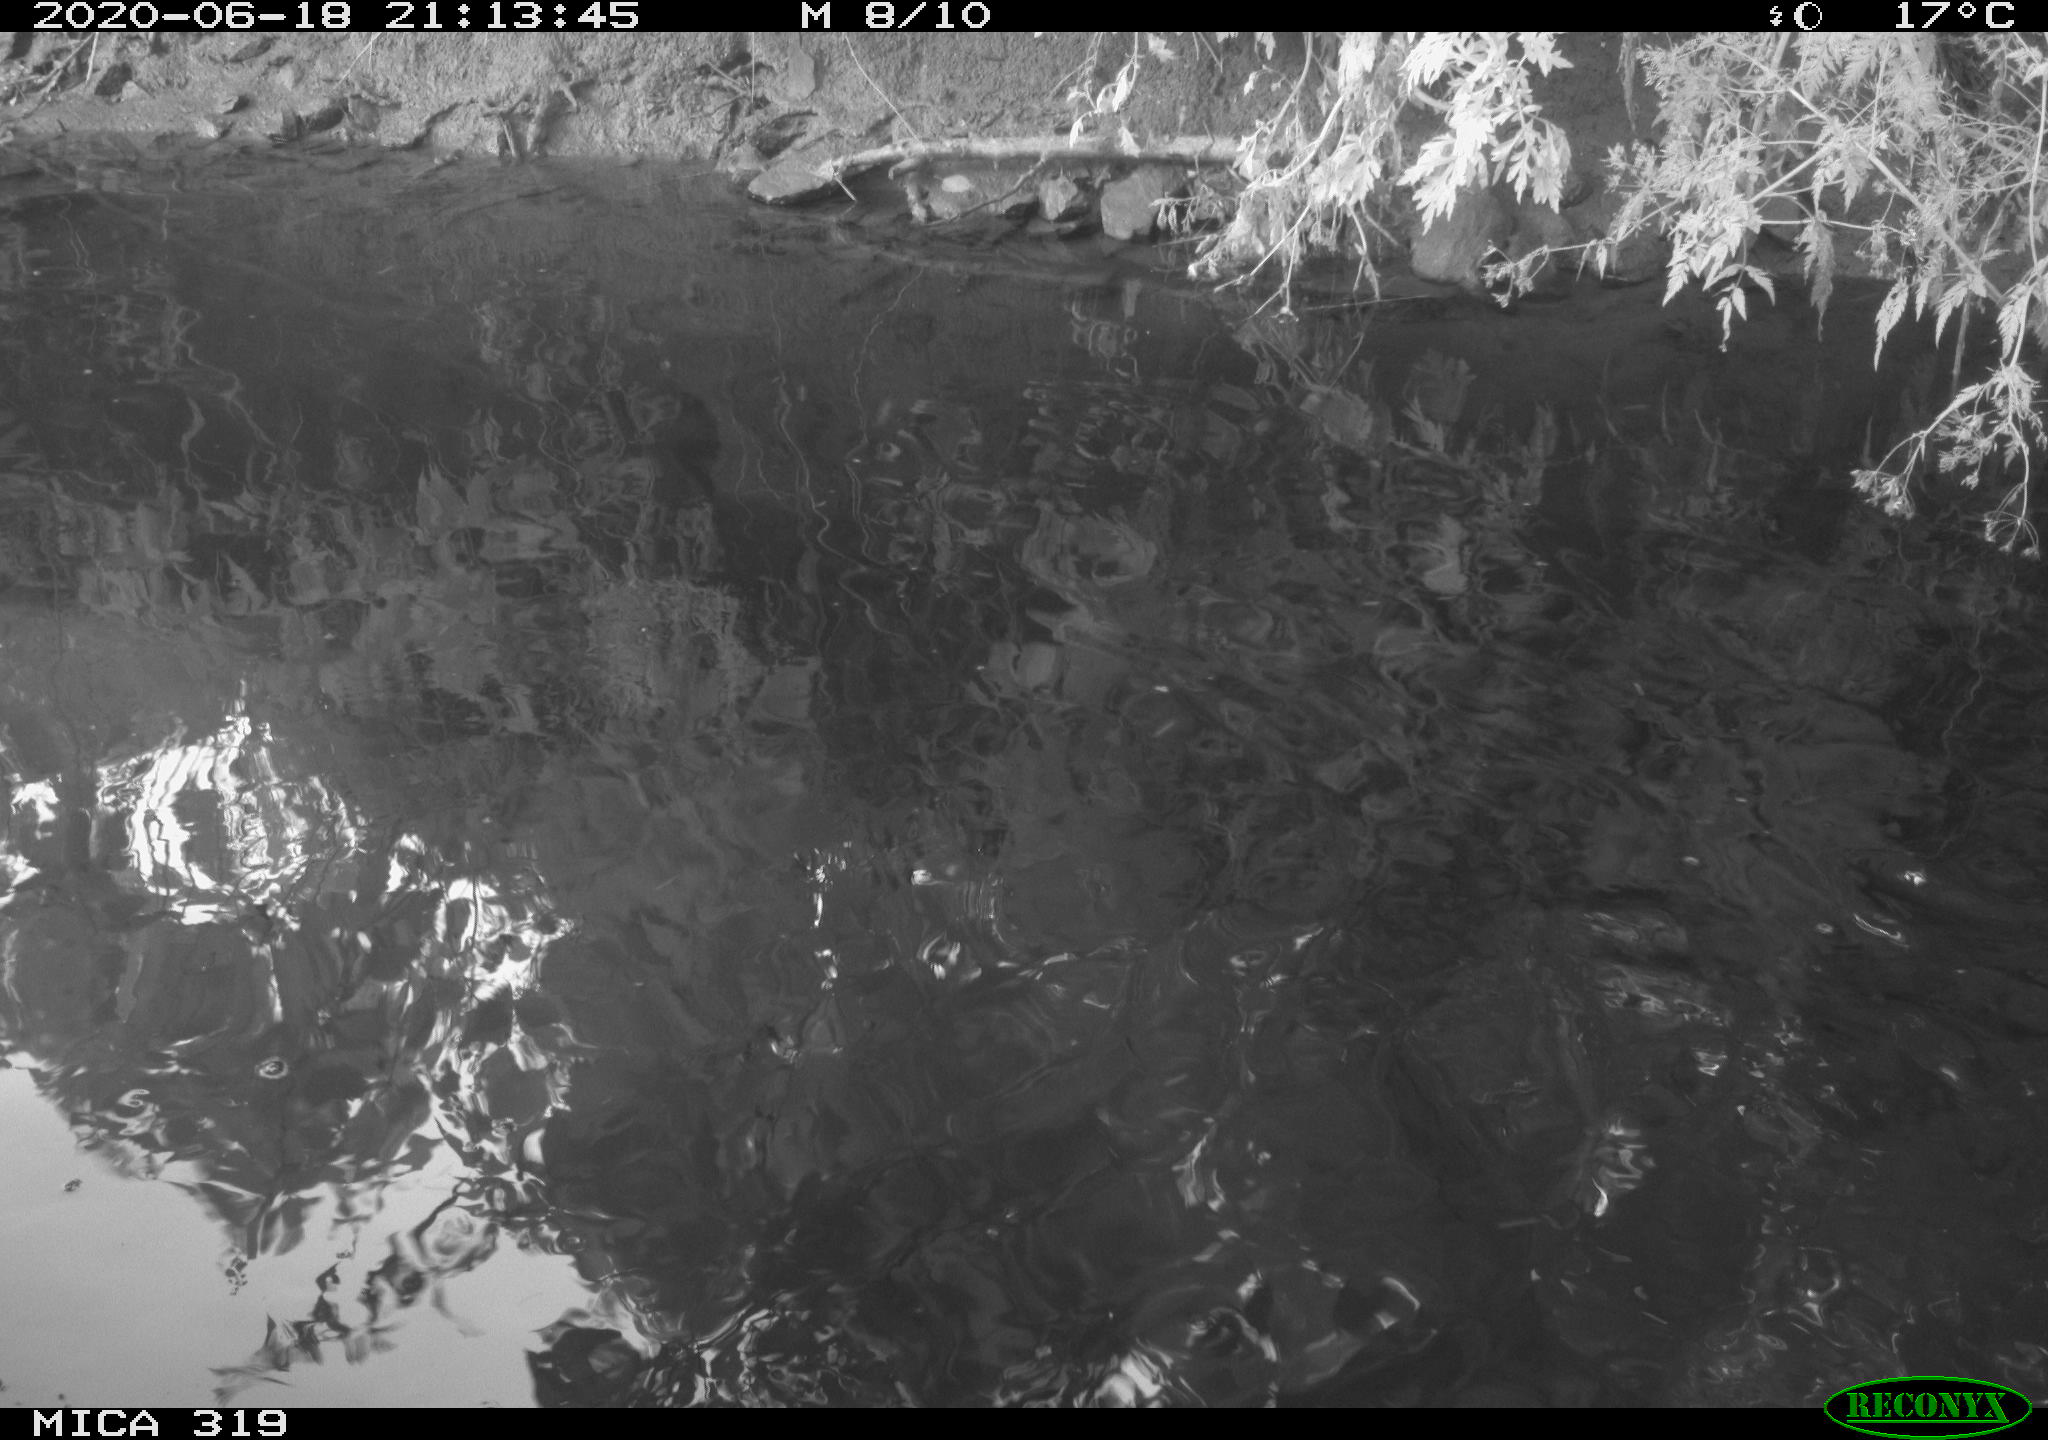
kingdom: Animalia
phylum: Chordata
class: Aves
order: Anseriformes
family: Anatidae
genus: Anas
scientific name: Anas platyrhynchos
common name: Mallard
